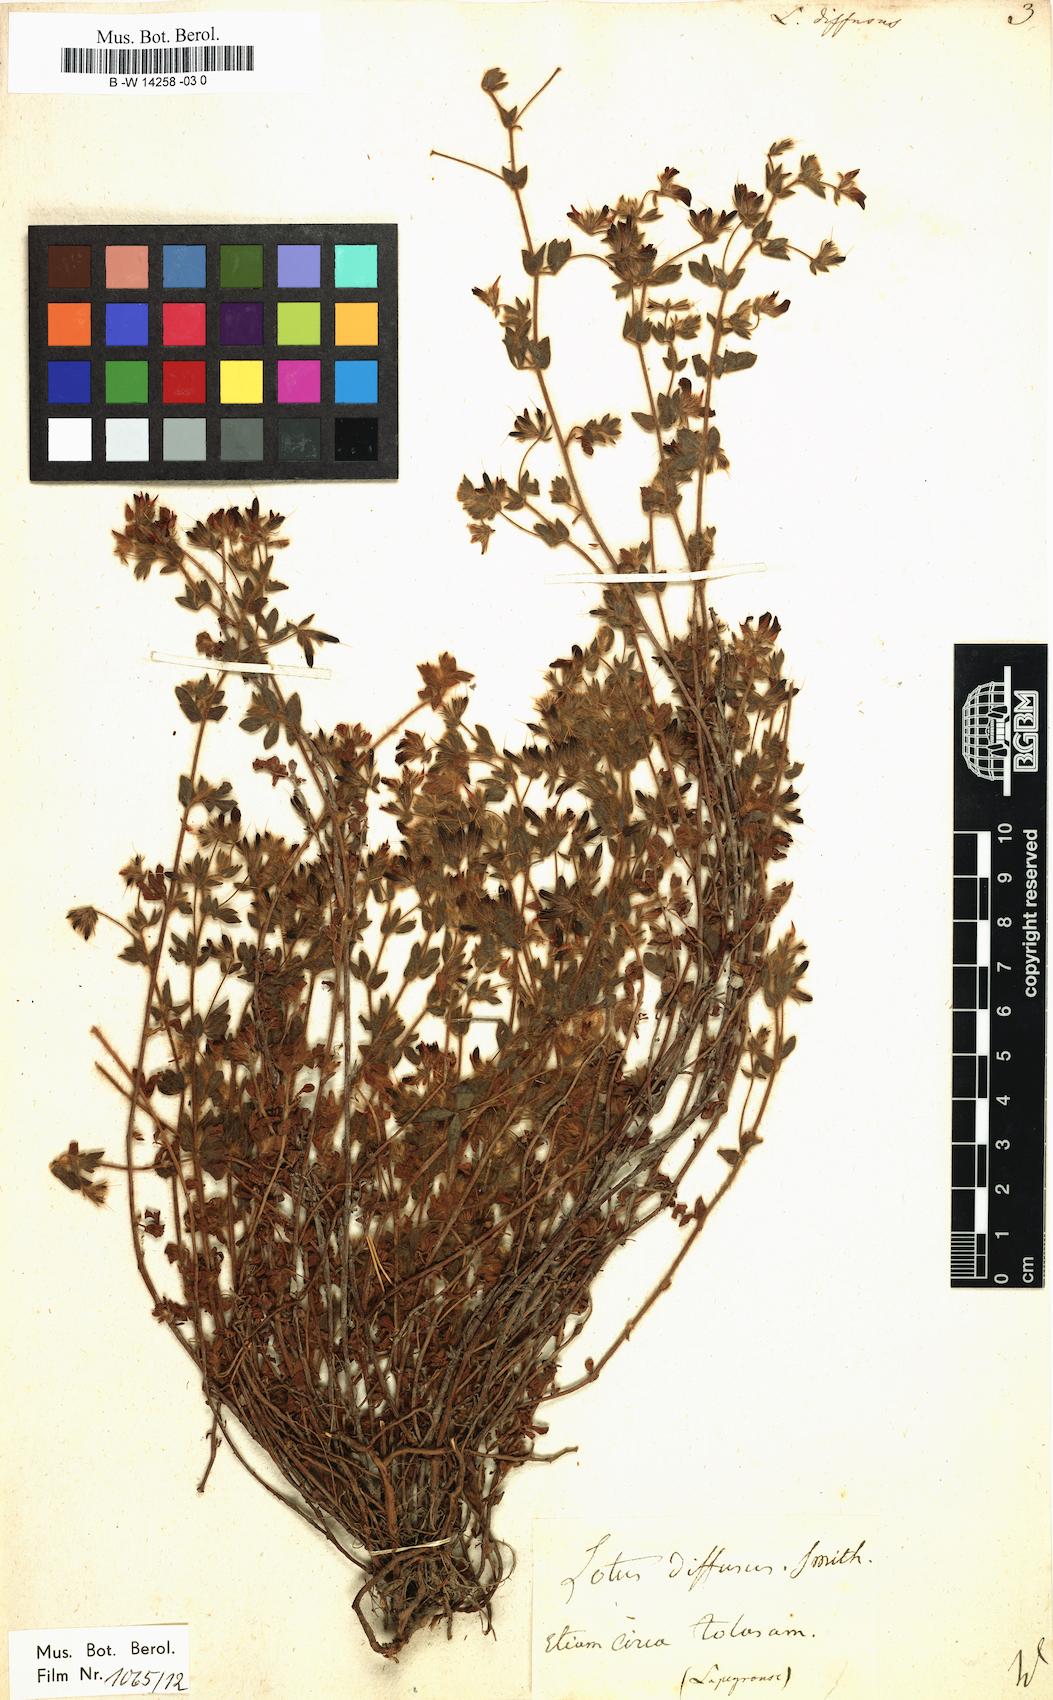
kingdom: Plantae
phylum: Tracheophyta
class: Magnoliopsida
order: Fabales
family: Fabaceae
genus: Acmispon
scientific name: Acmispon glaber
